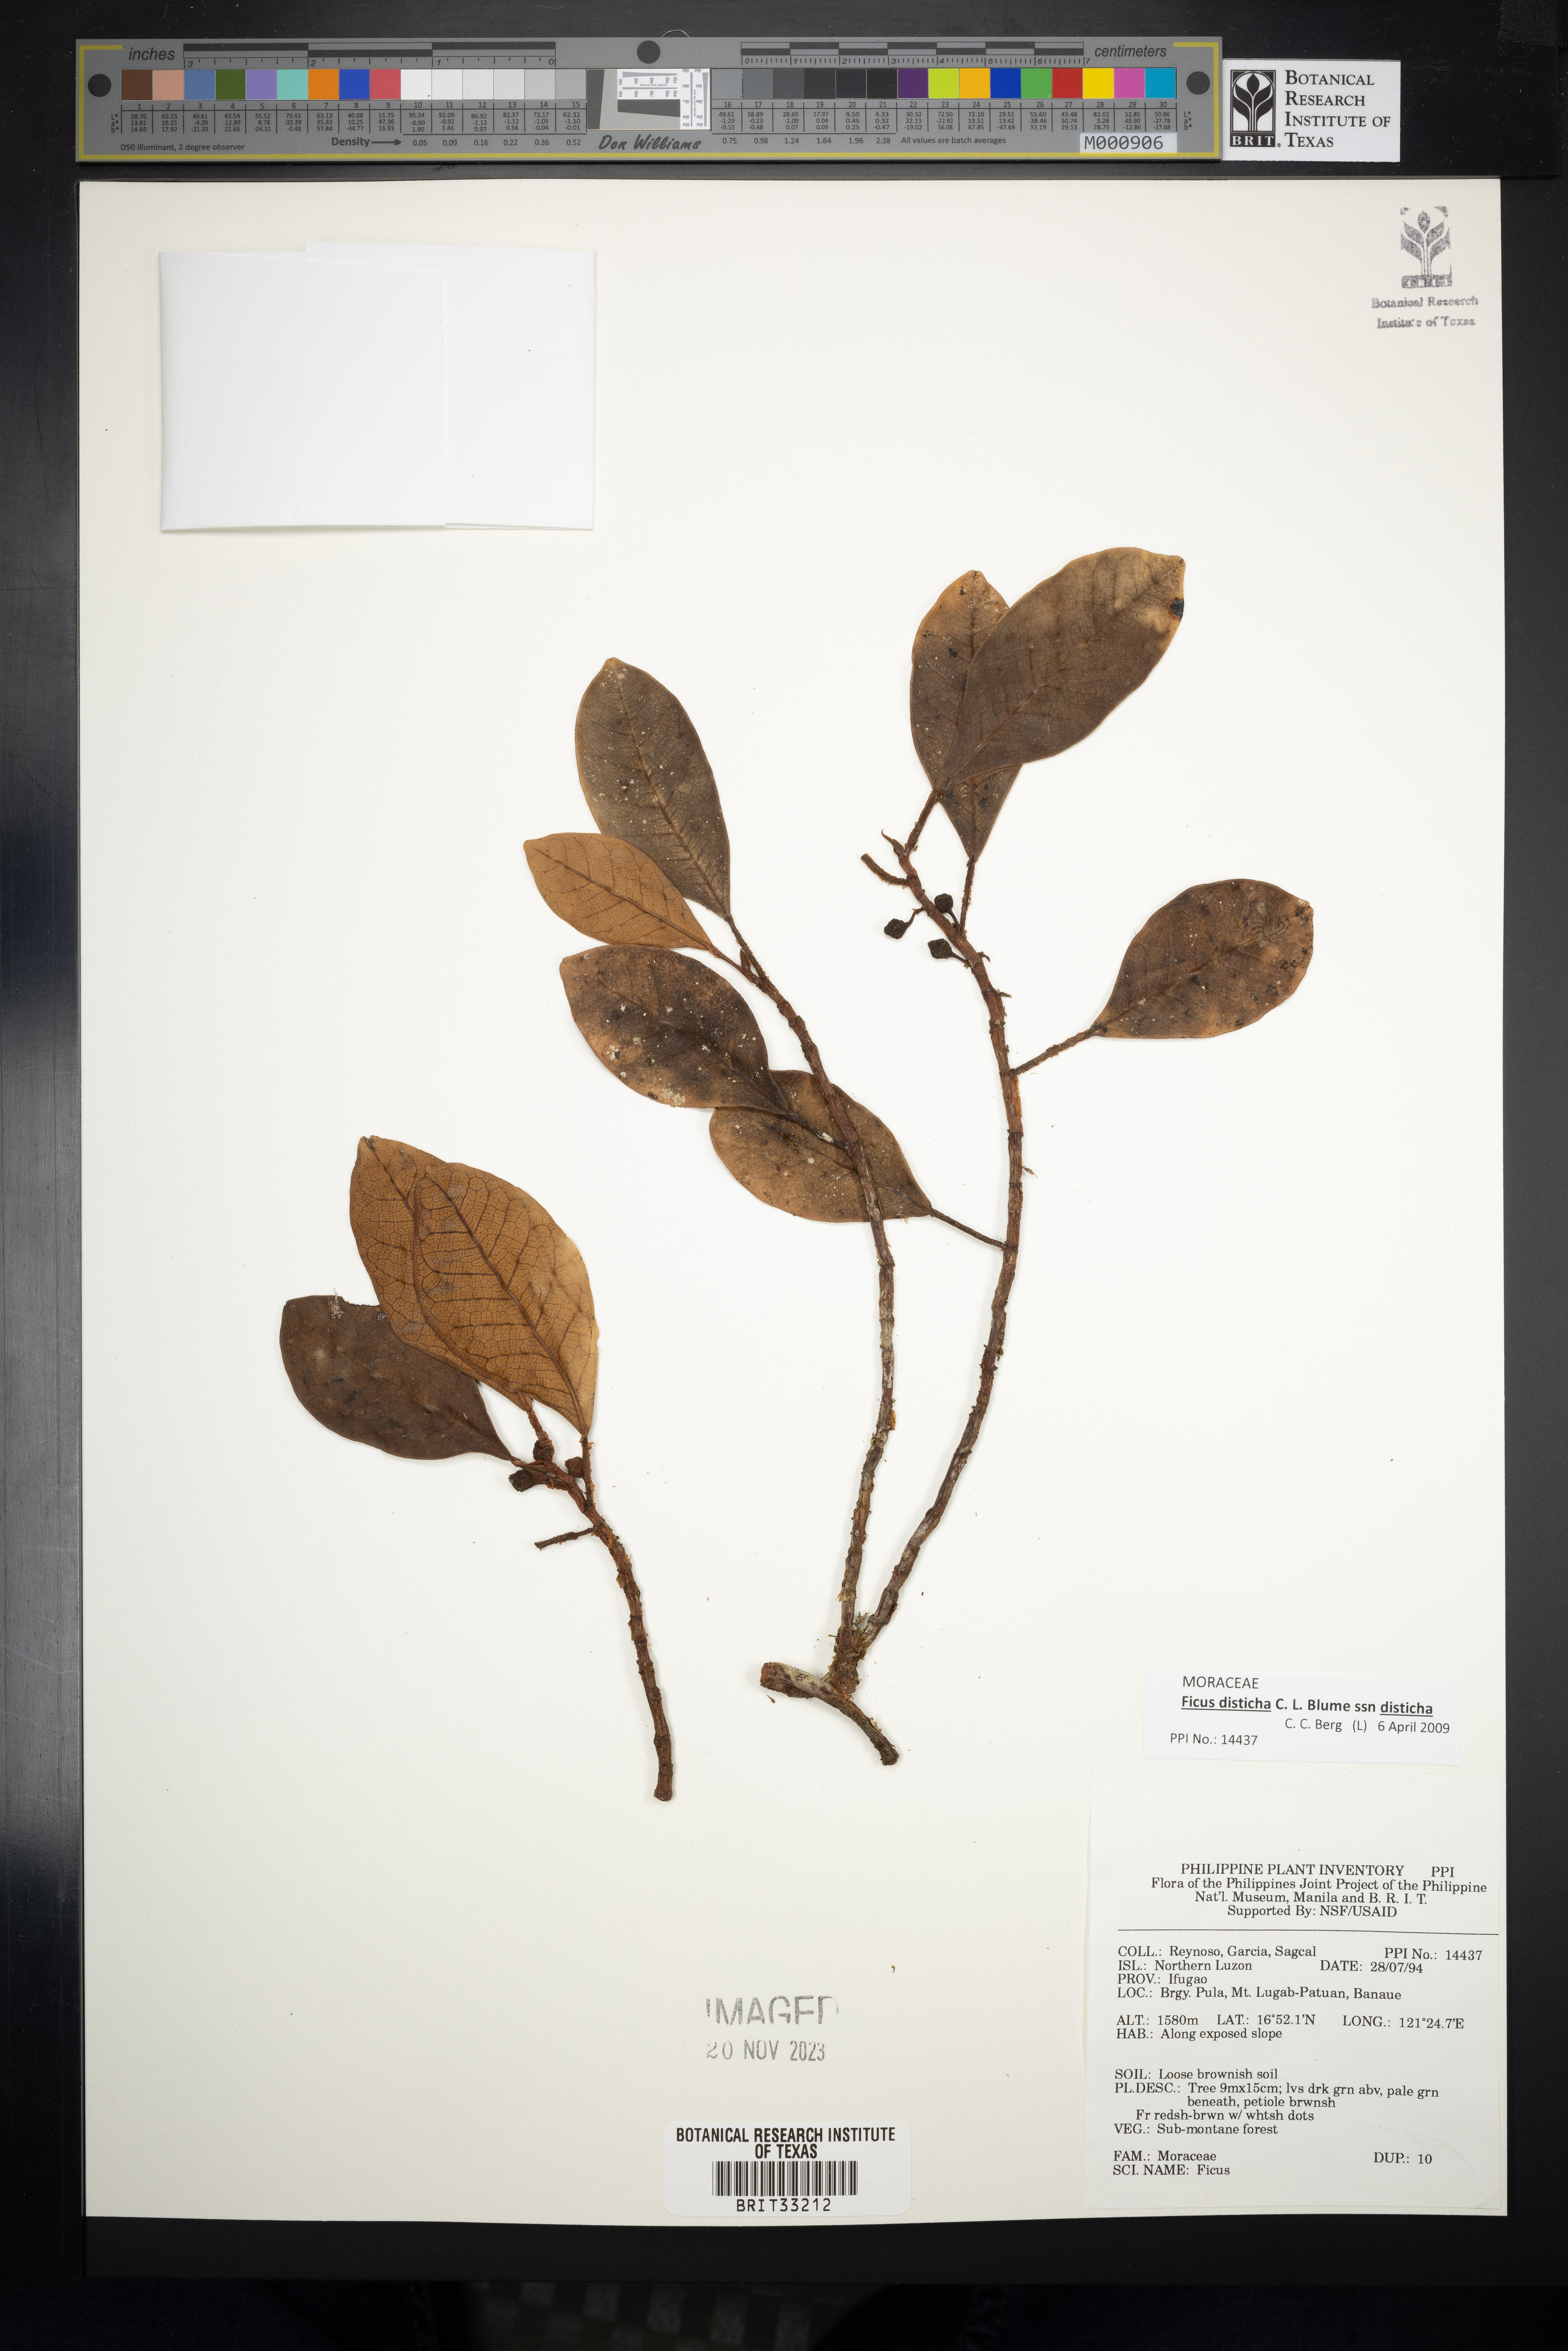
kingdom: Plantae
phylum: Tracheophyta
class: Magnoliopsida
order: Rosales
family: Moraceae
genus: Ficus
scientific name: Ficus
